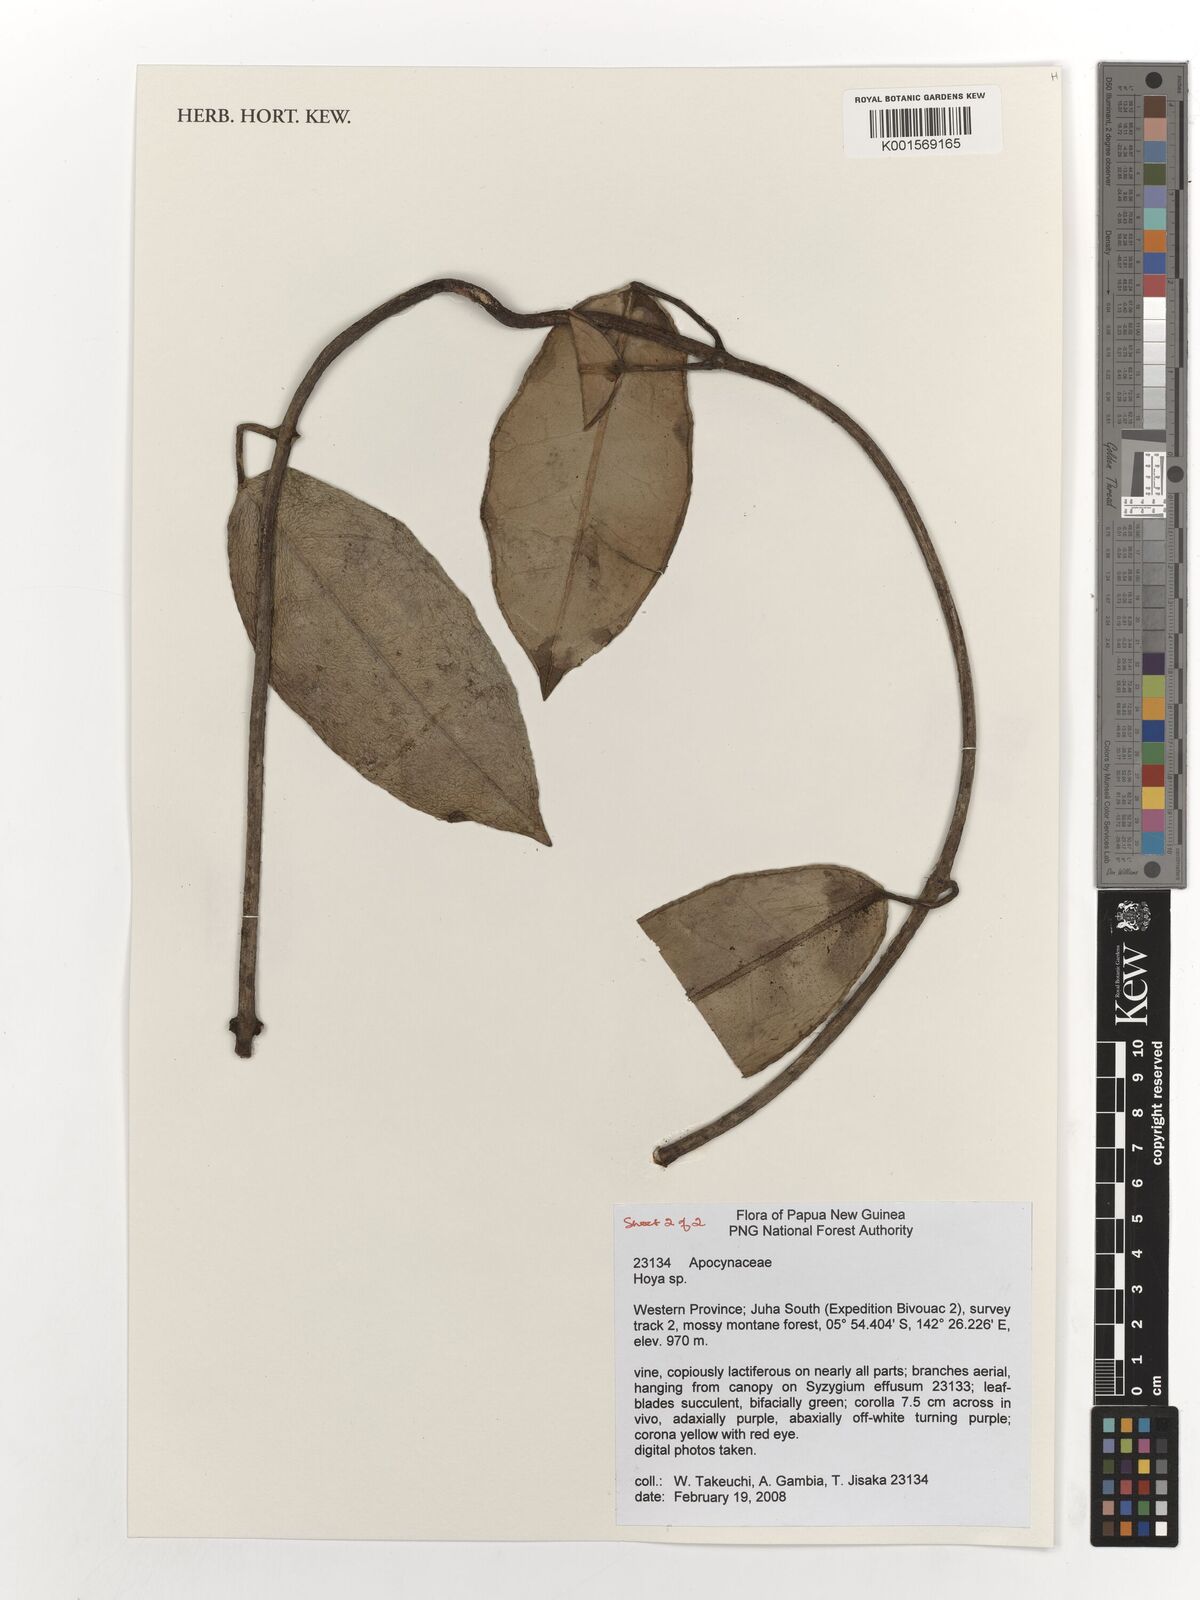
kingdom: Plantae
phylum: Tracheophyta
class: Magnoliopsida
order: Gentianales
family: Apocynaceae
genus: Hoya
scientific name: Hoya
